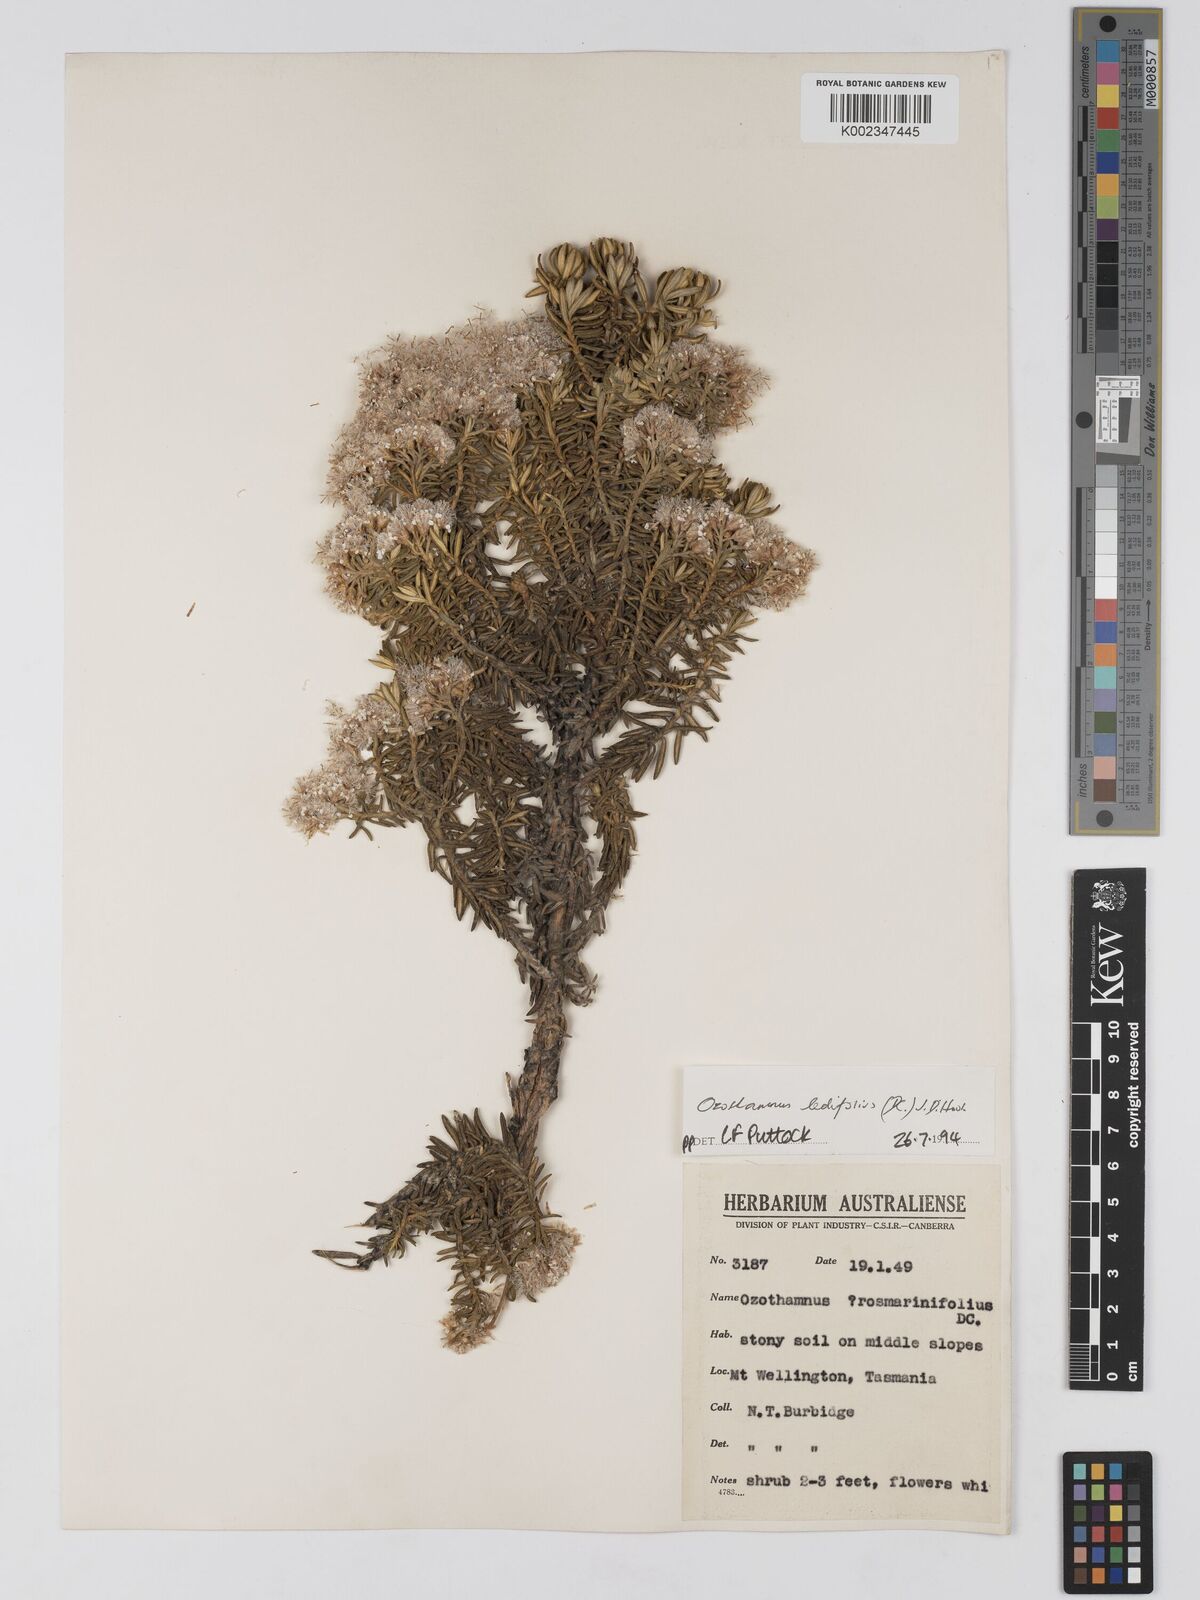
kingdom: Plantae
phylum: Tracheophyta
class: Magnoliopsida
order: Asterales
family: Asteraceae
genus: Ozothamnus
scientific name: Ozothamnus ledifolius
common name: Kerosene-weed
